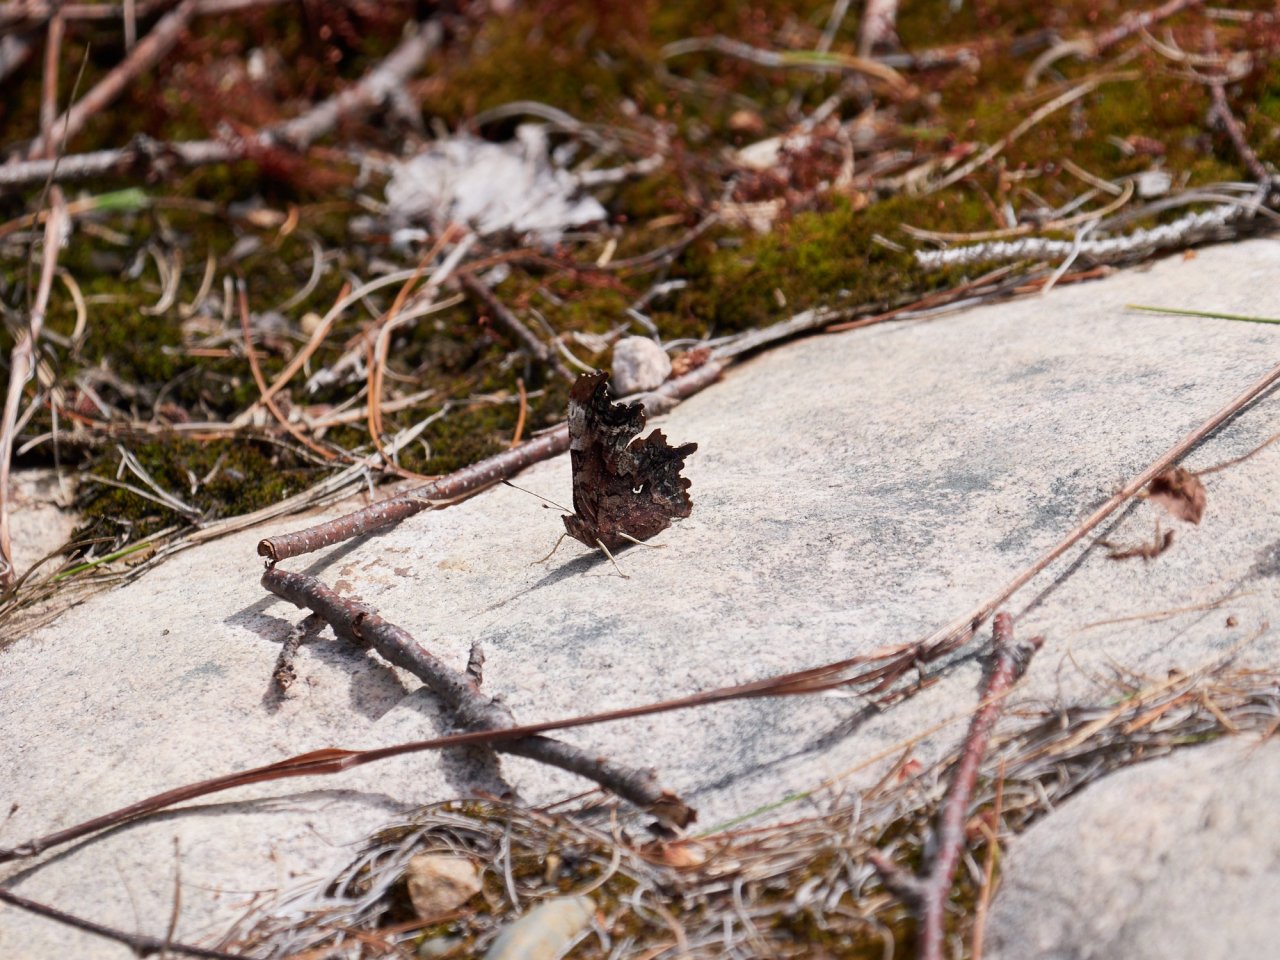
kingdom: Animalia
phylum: Arthropoda
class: Insecta
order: Lepidoptera
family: Nymphalidae
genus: Polygonia
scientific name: Polygonia faunus
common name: Green Comma
